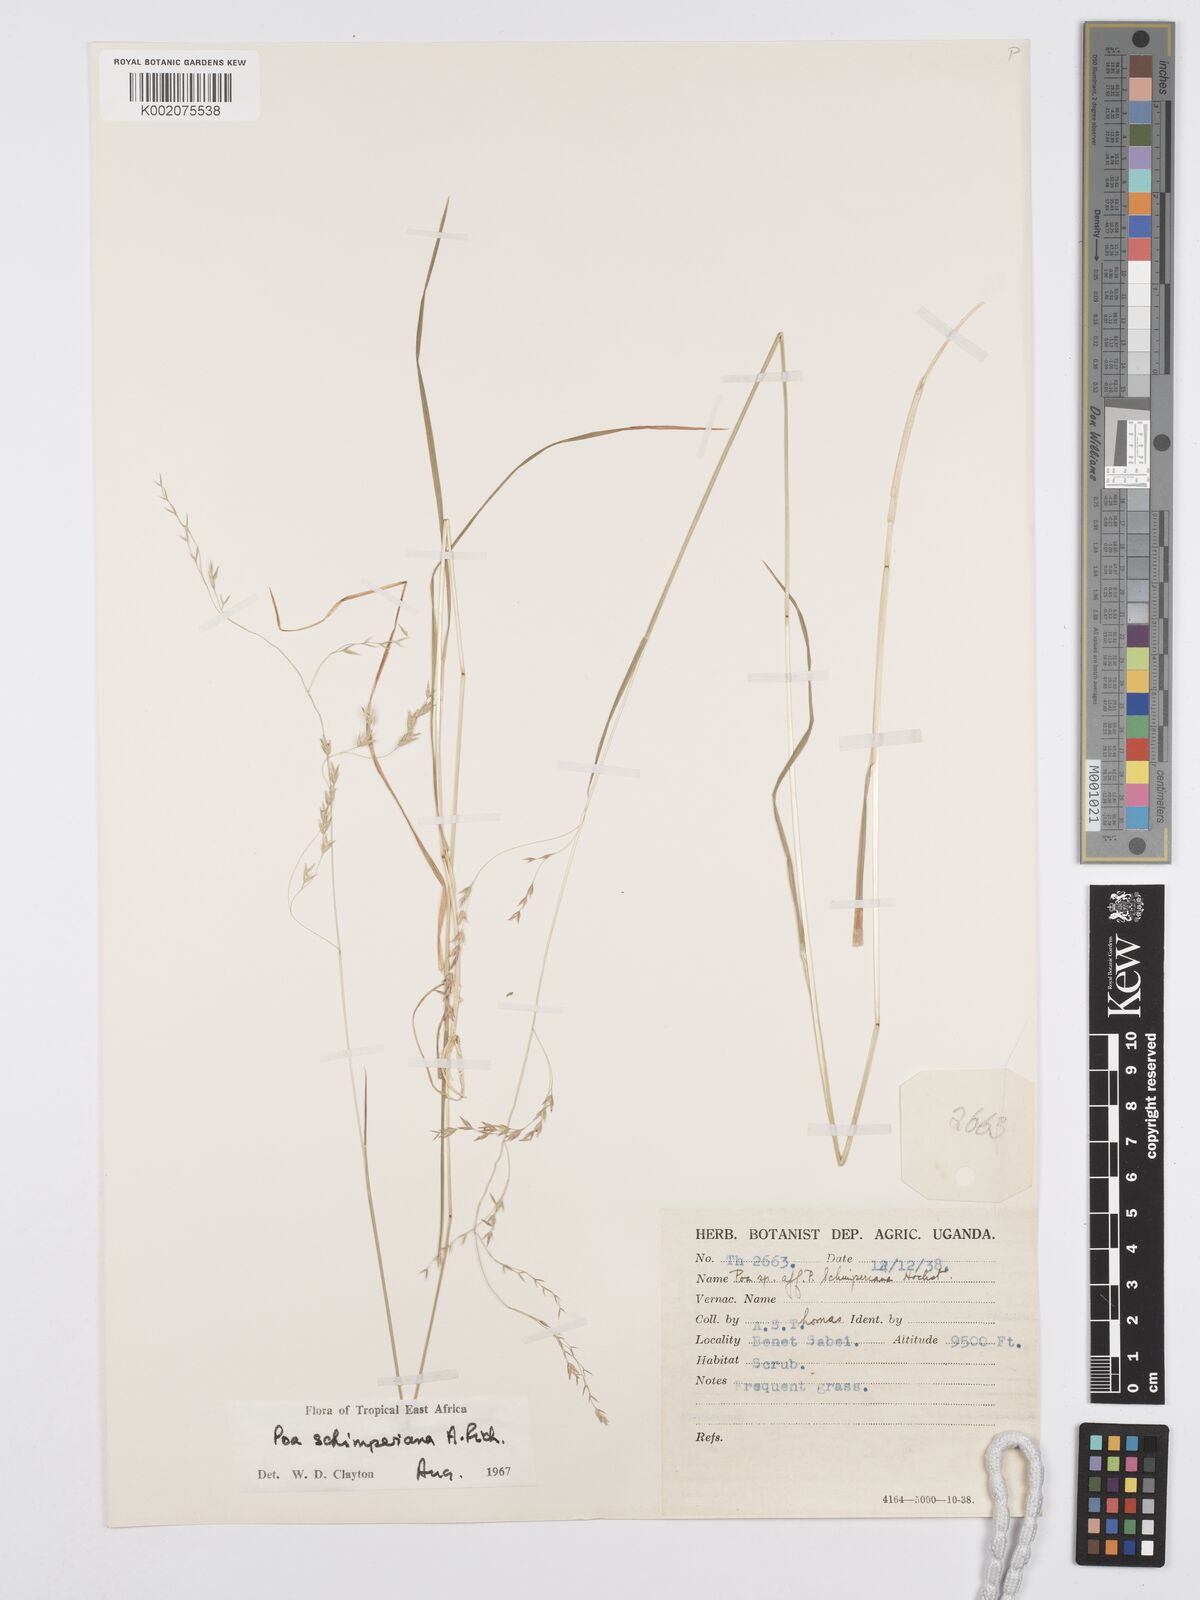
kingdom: Plantae
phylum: Tracheophyta
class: Liliopsida
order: Poales
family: Poaceae
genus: Poa
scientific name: Poa schimperiana
